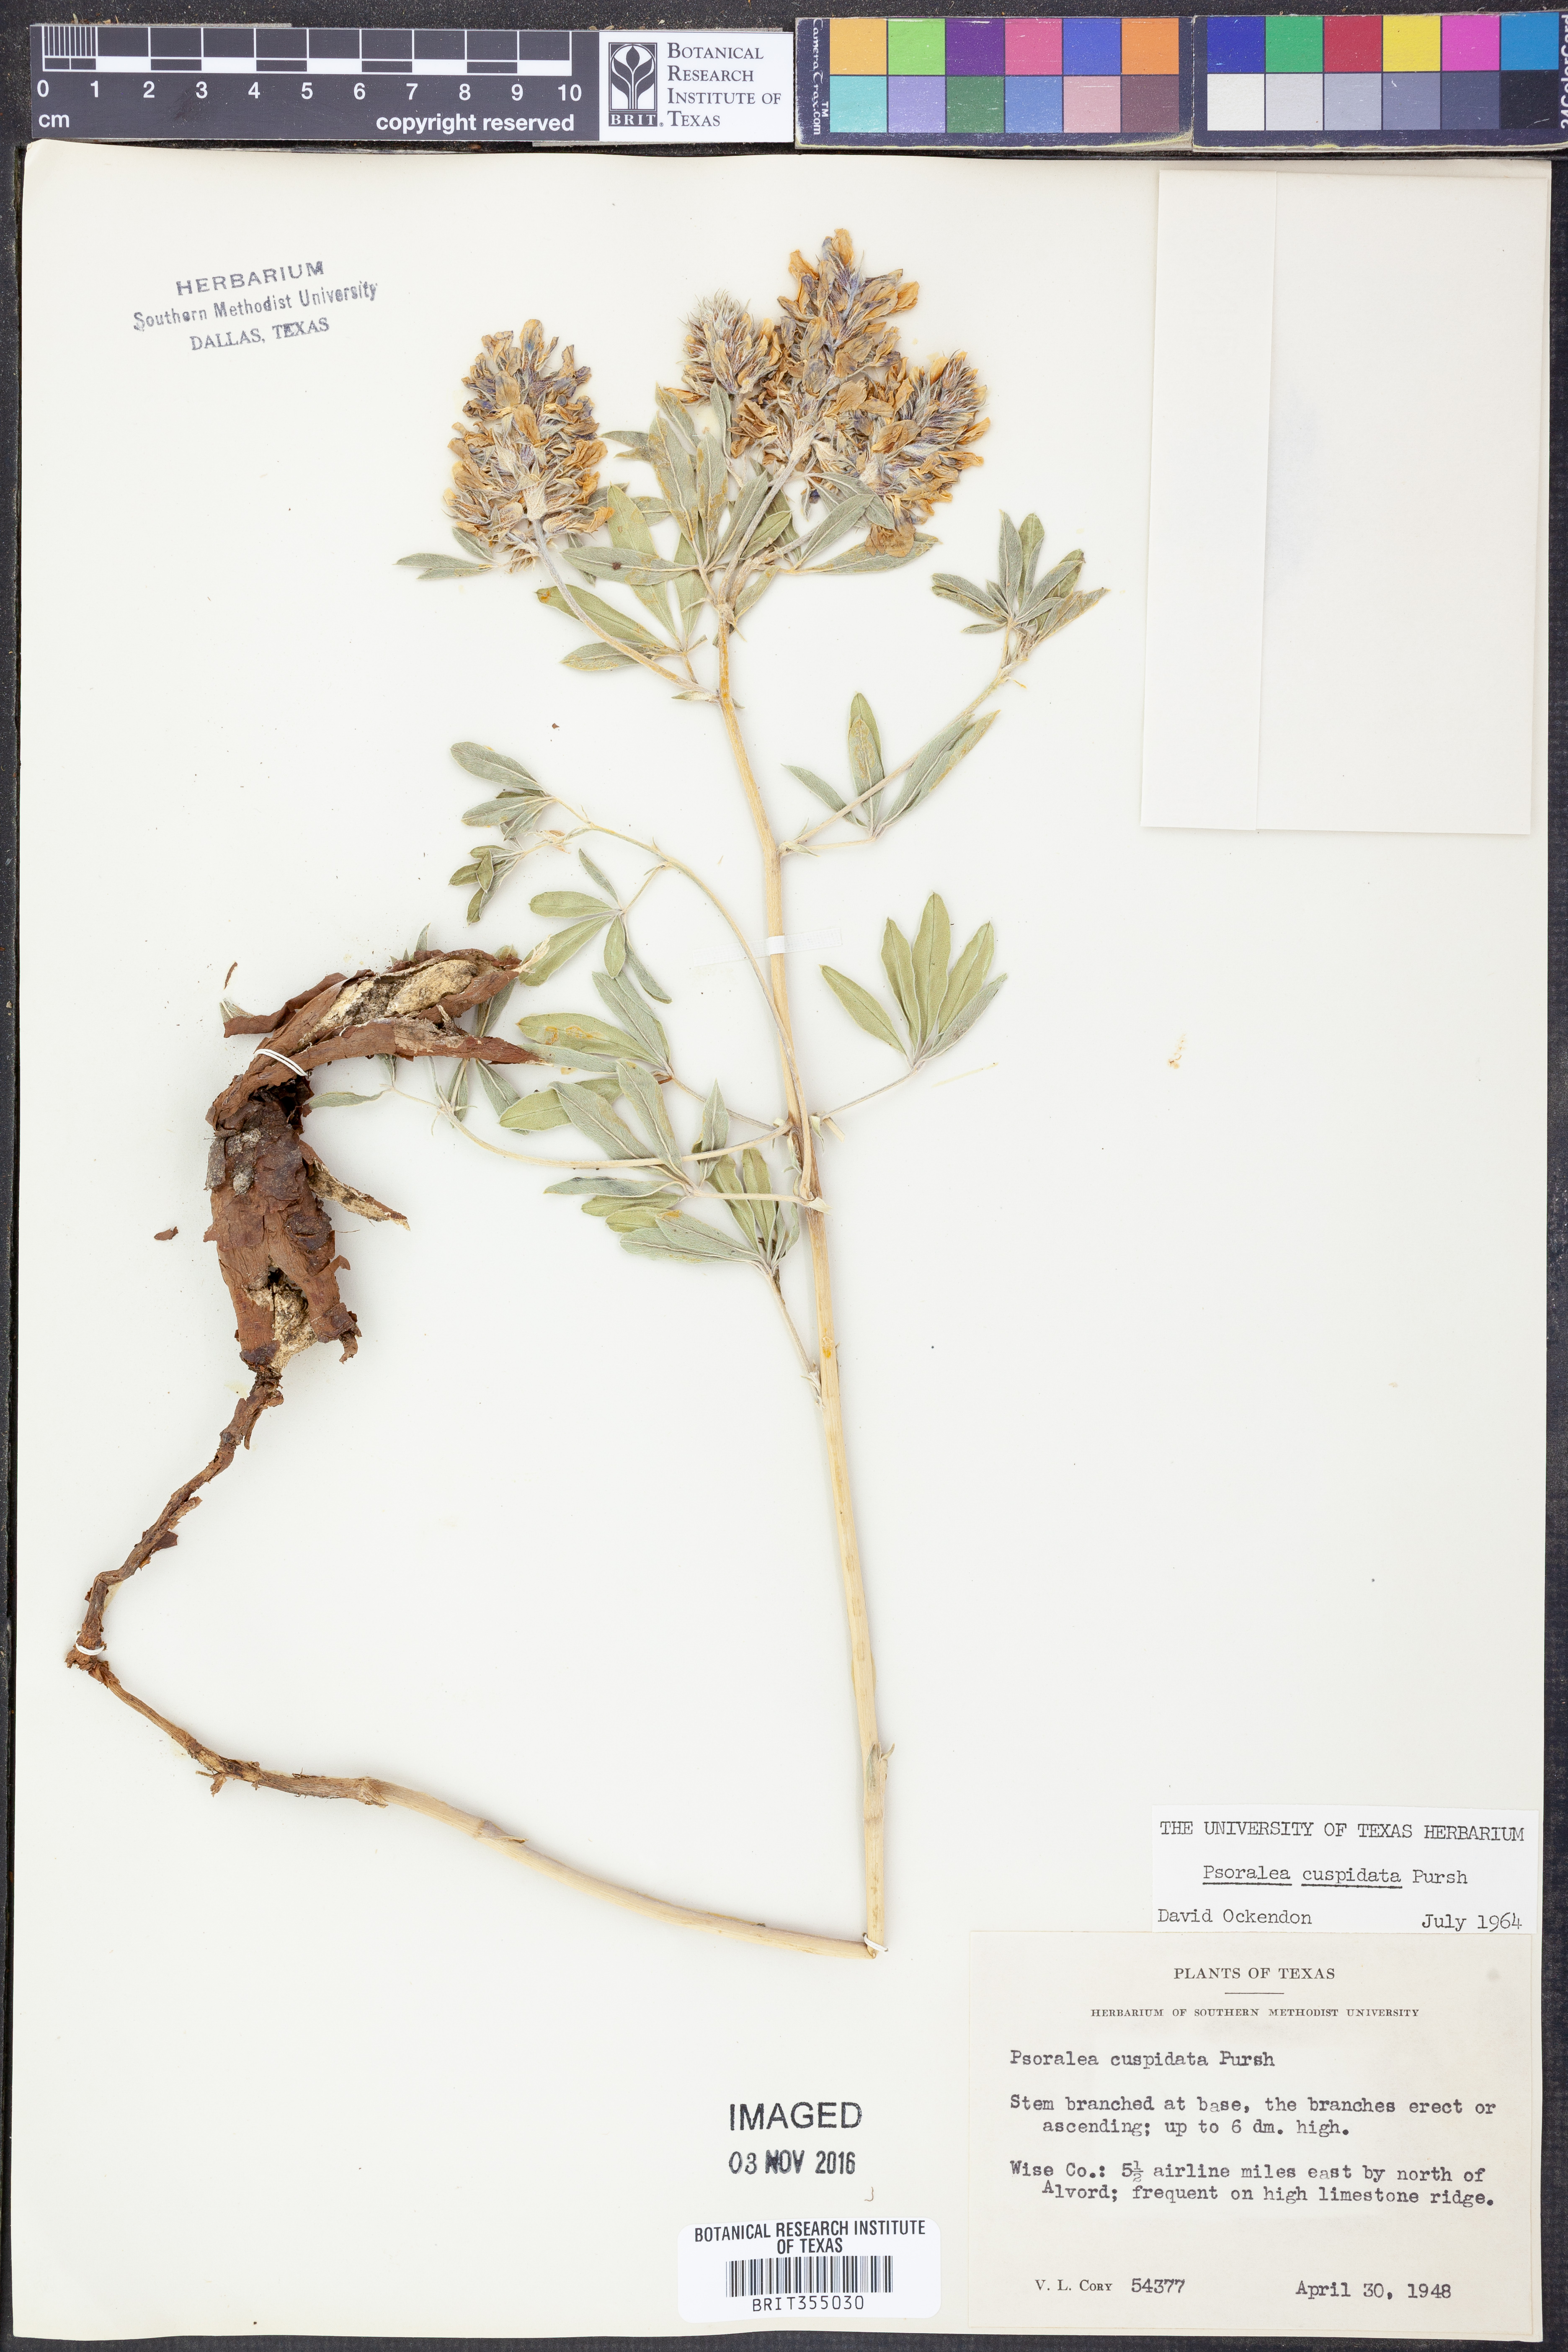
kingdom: Plantae
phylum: Tracheophyta
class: Magnoliopsida
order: Fabales
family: Fabaceae
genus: Pediomelum
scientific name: Pediomelum cuspidatum
